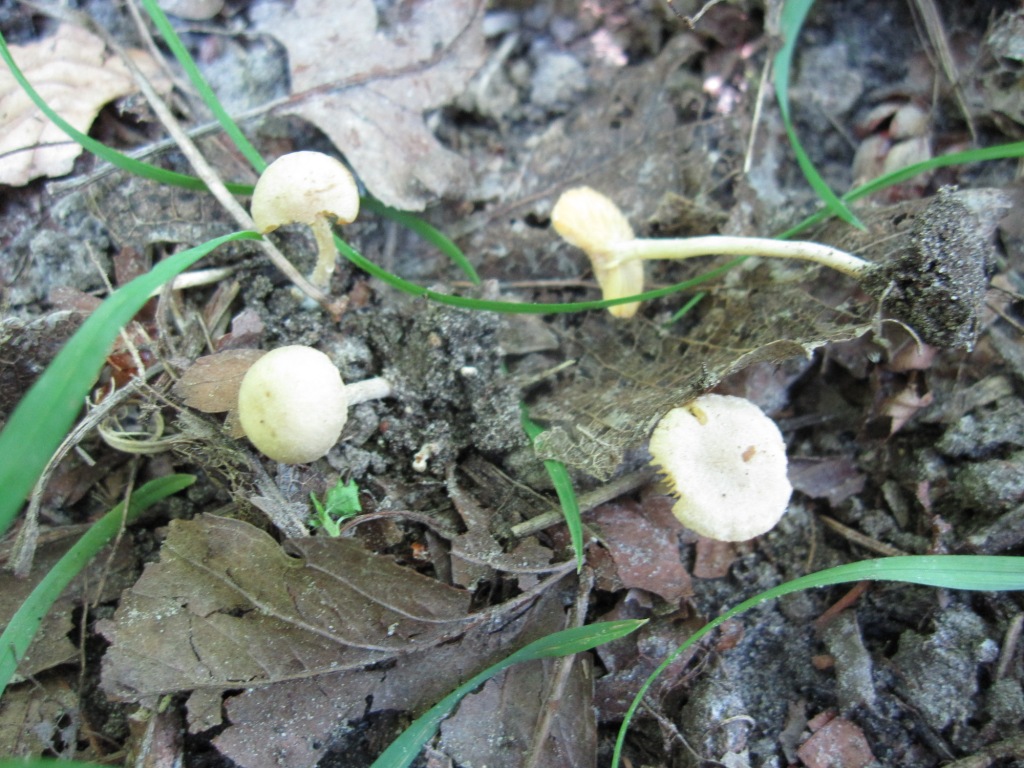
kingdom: Fungi
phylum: Basidiomycota
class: Agaricomycetes
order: Agaricales
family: Tubariaceae
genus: Tubaria
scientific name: Tubaria dispersa
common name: tjørne-fnughat
